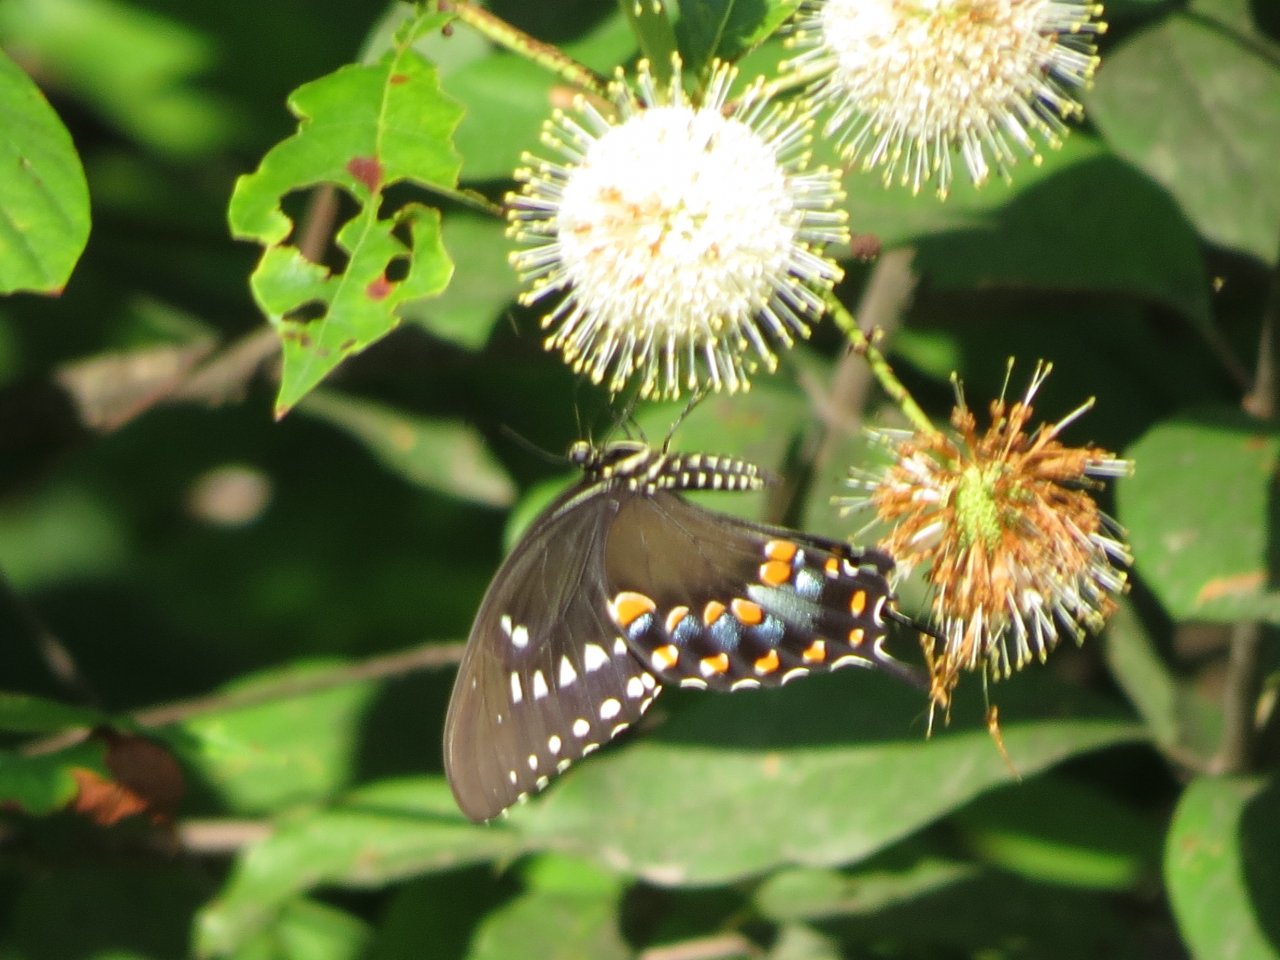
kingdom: Animalia
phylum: Arthropoda
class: Insecta
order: Lepidoptera
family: Papilionidae
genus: Pterourus
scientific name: Pterourus troilus
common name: Spicebush Swallowtail
